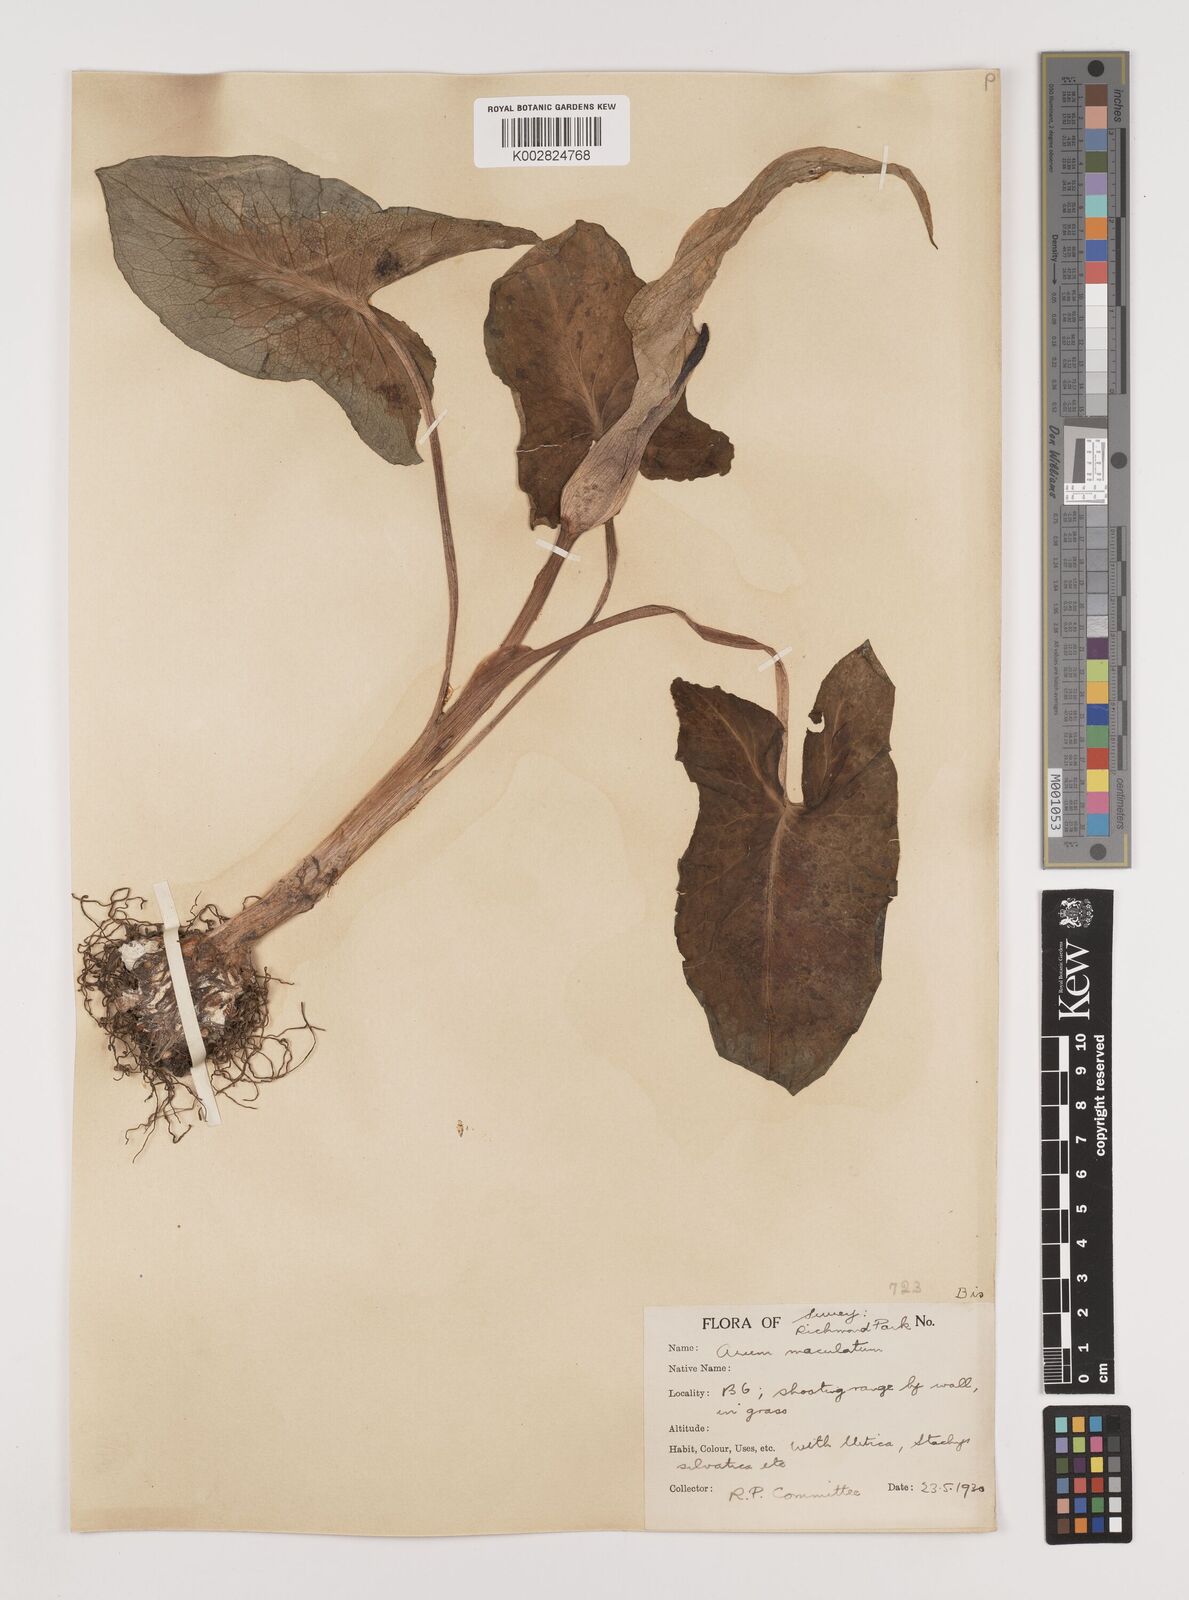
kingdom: Plantae
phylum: Tracheophyta
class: Liliopsida
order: Alismatales
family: Araceae
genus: Arum
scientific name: Arum maculatum
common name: Lords-and-ladies
